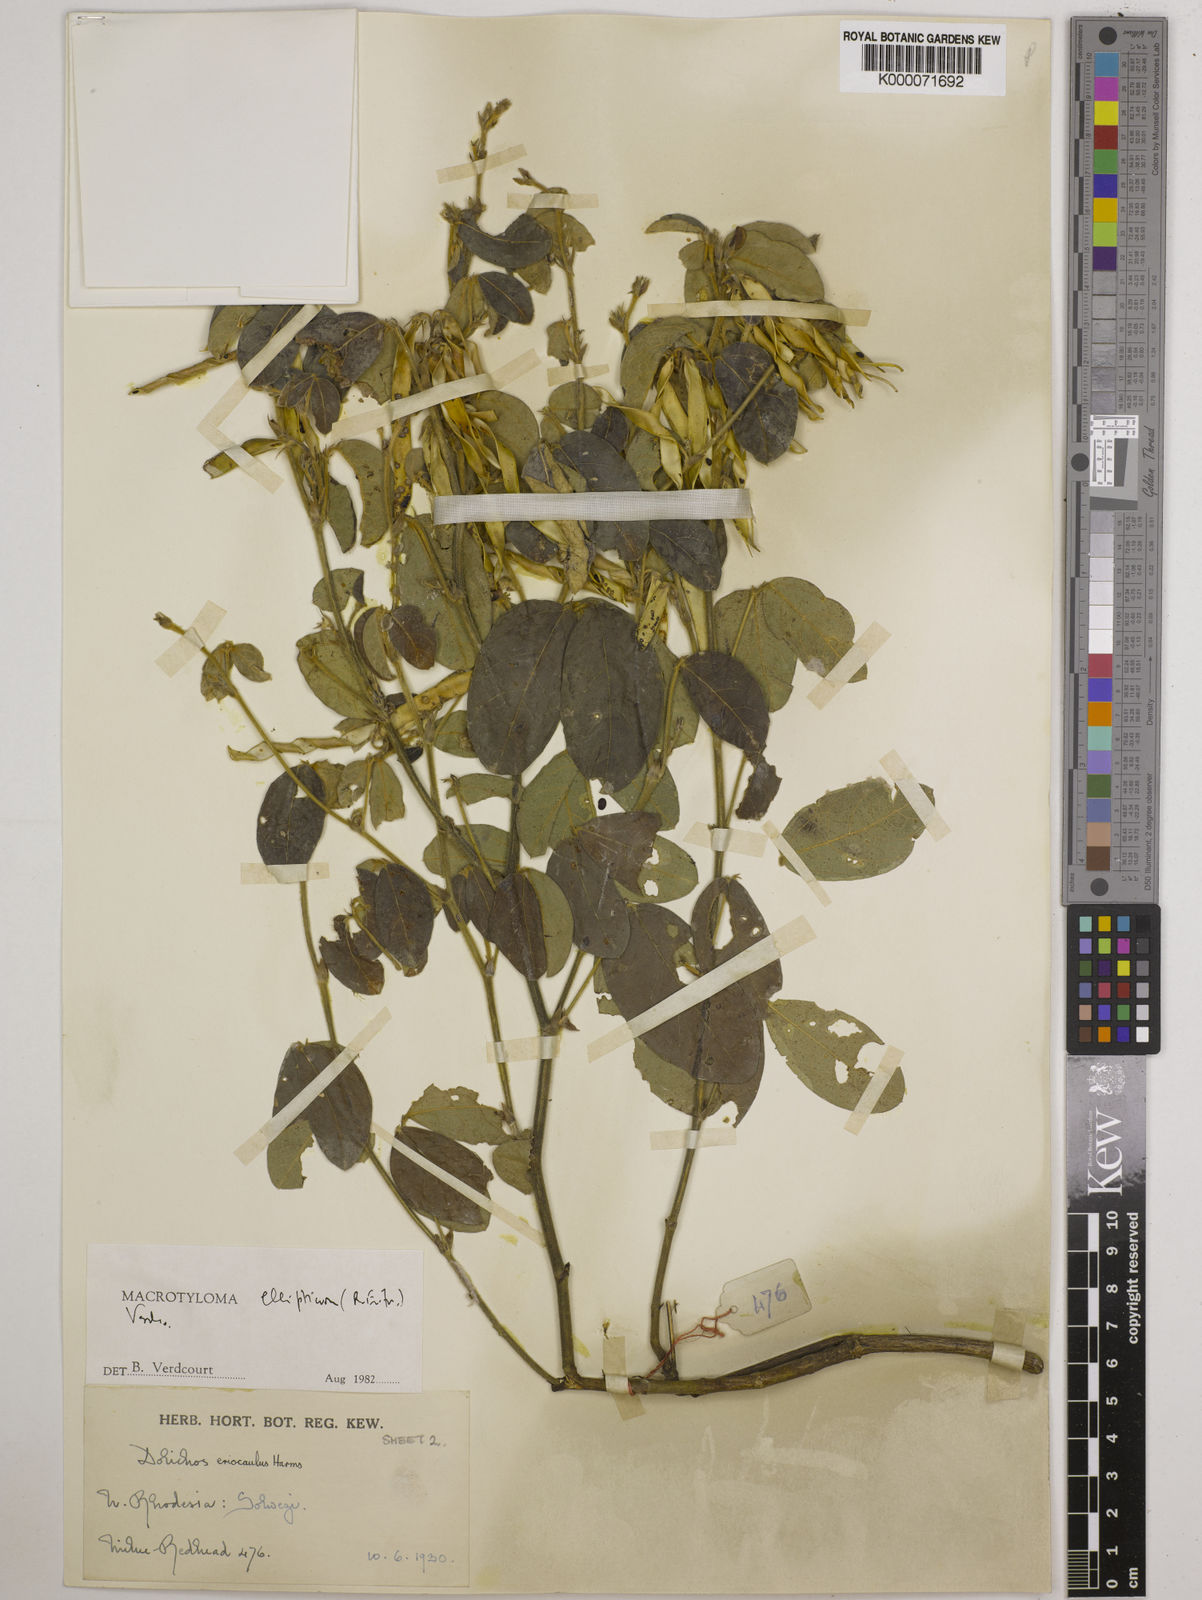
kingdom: Plantae
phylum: Tracheophyta
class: Magnoliopsida
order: Fabales
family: Fabaceae
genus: Macrotyloma
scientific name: Macrotyloma ellipticum
